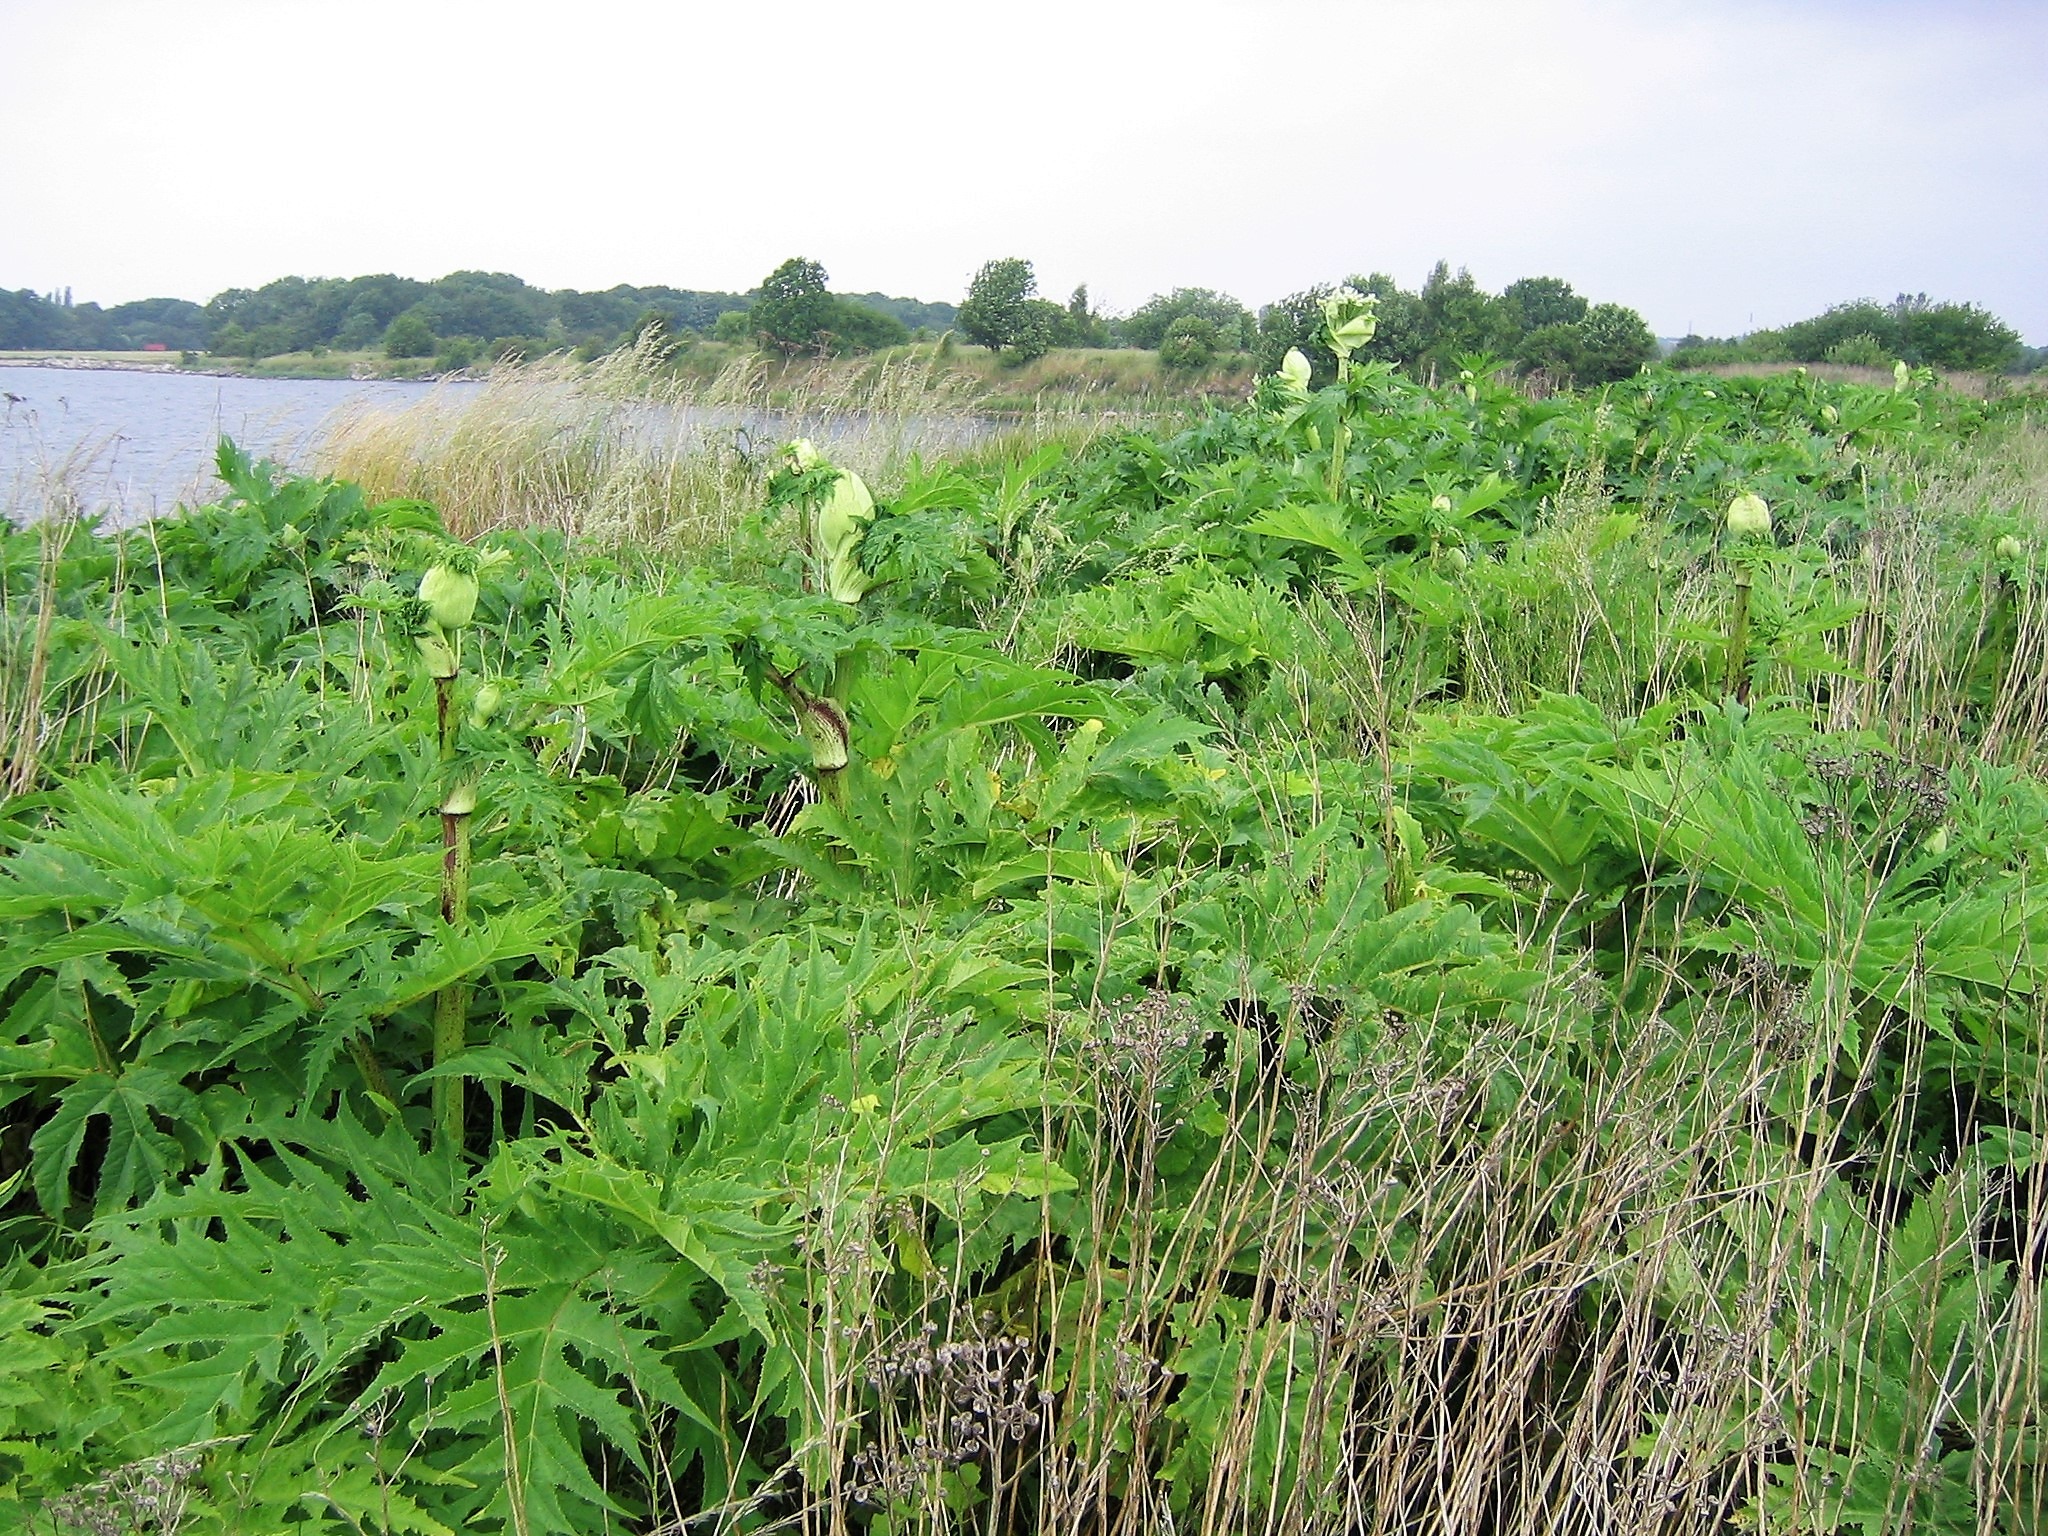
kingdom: Plantae
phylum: Tracheophyta
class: Magnoliopsida
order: Apiales
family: Apiaceae
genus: Heracleum
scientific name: Heracleum mantegazzianum
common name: Kæmpe-bjørneklo
